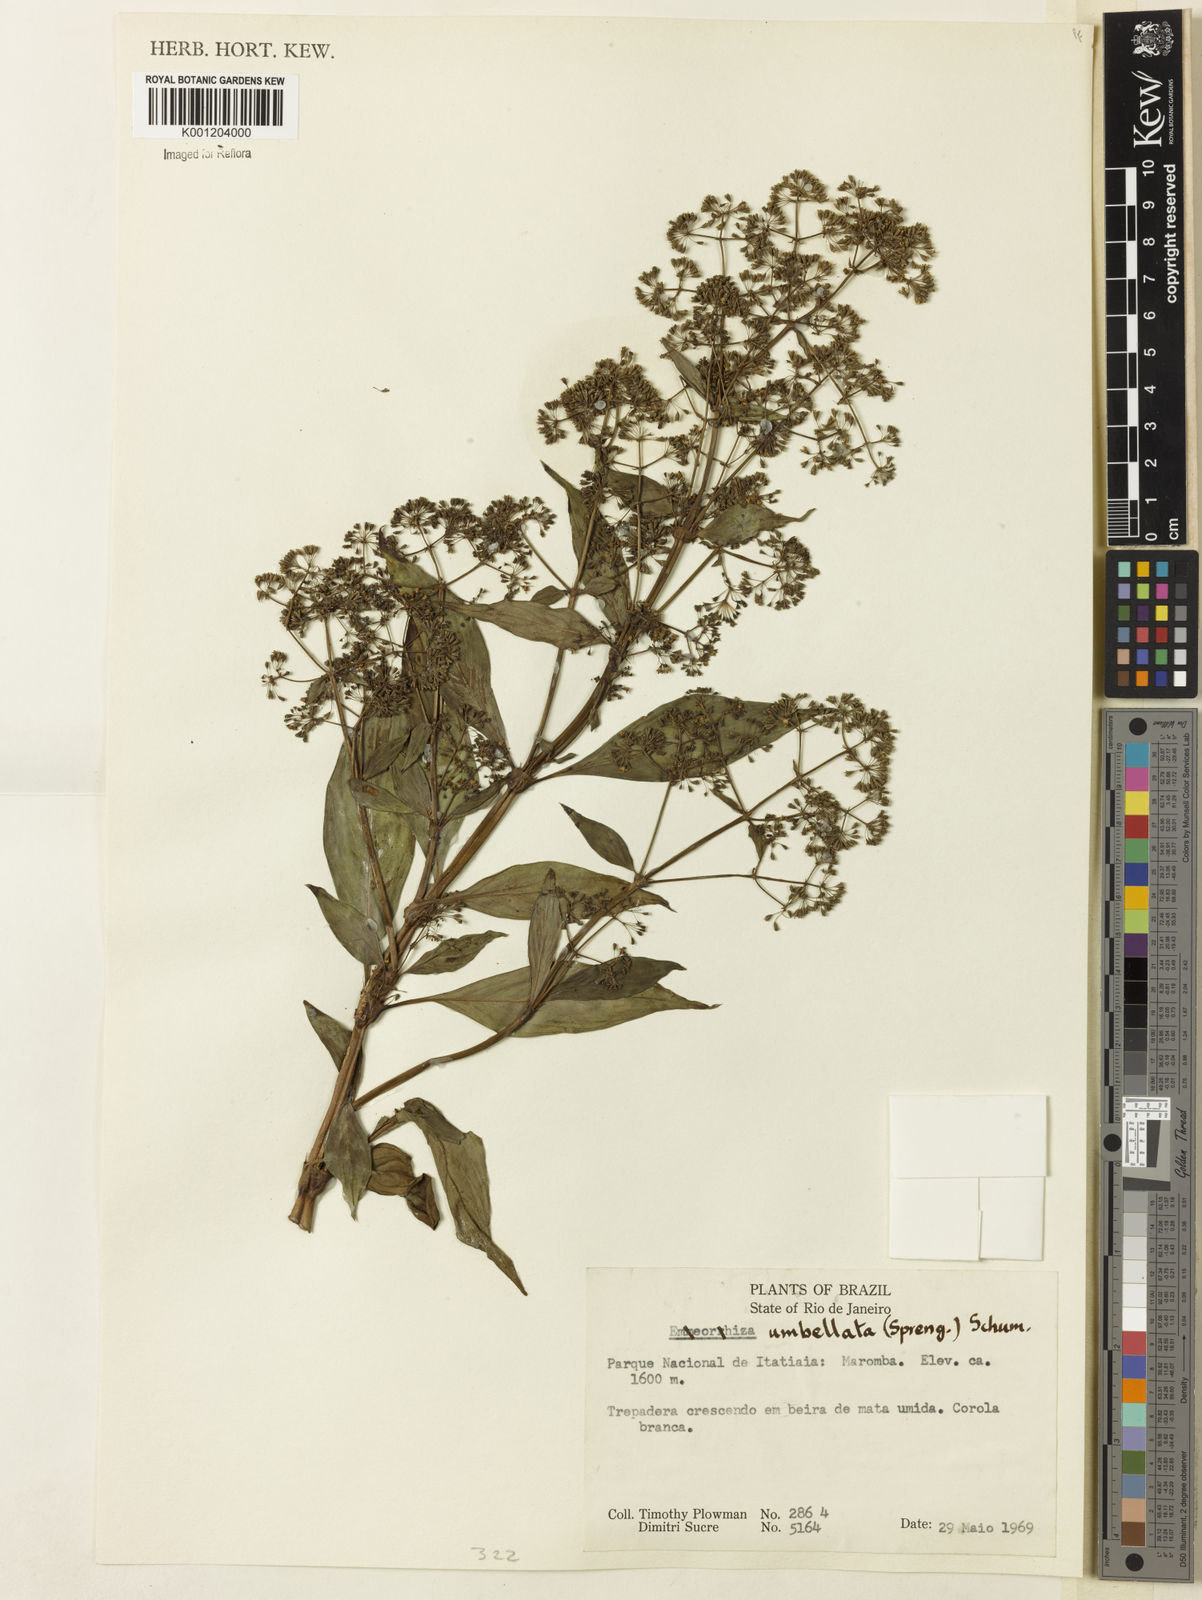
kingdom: Plantae
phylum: Tracheophyta
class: Magnoliopsida
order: Gentianales
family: Rubiaceae
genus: Emmeorhiza
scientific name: Emmeorhiza umbellata
